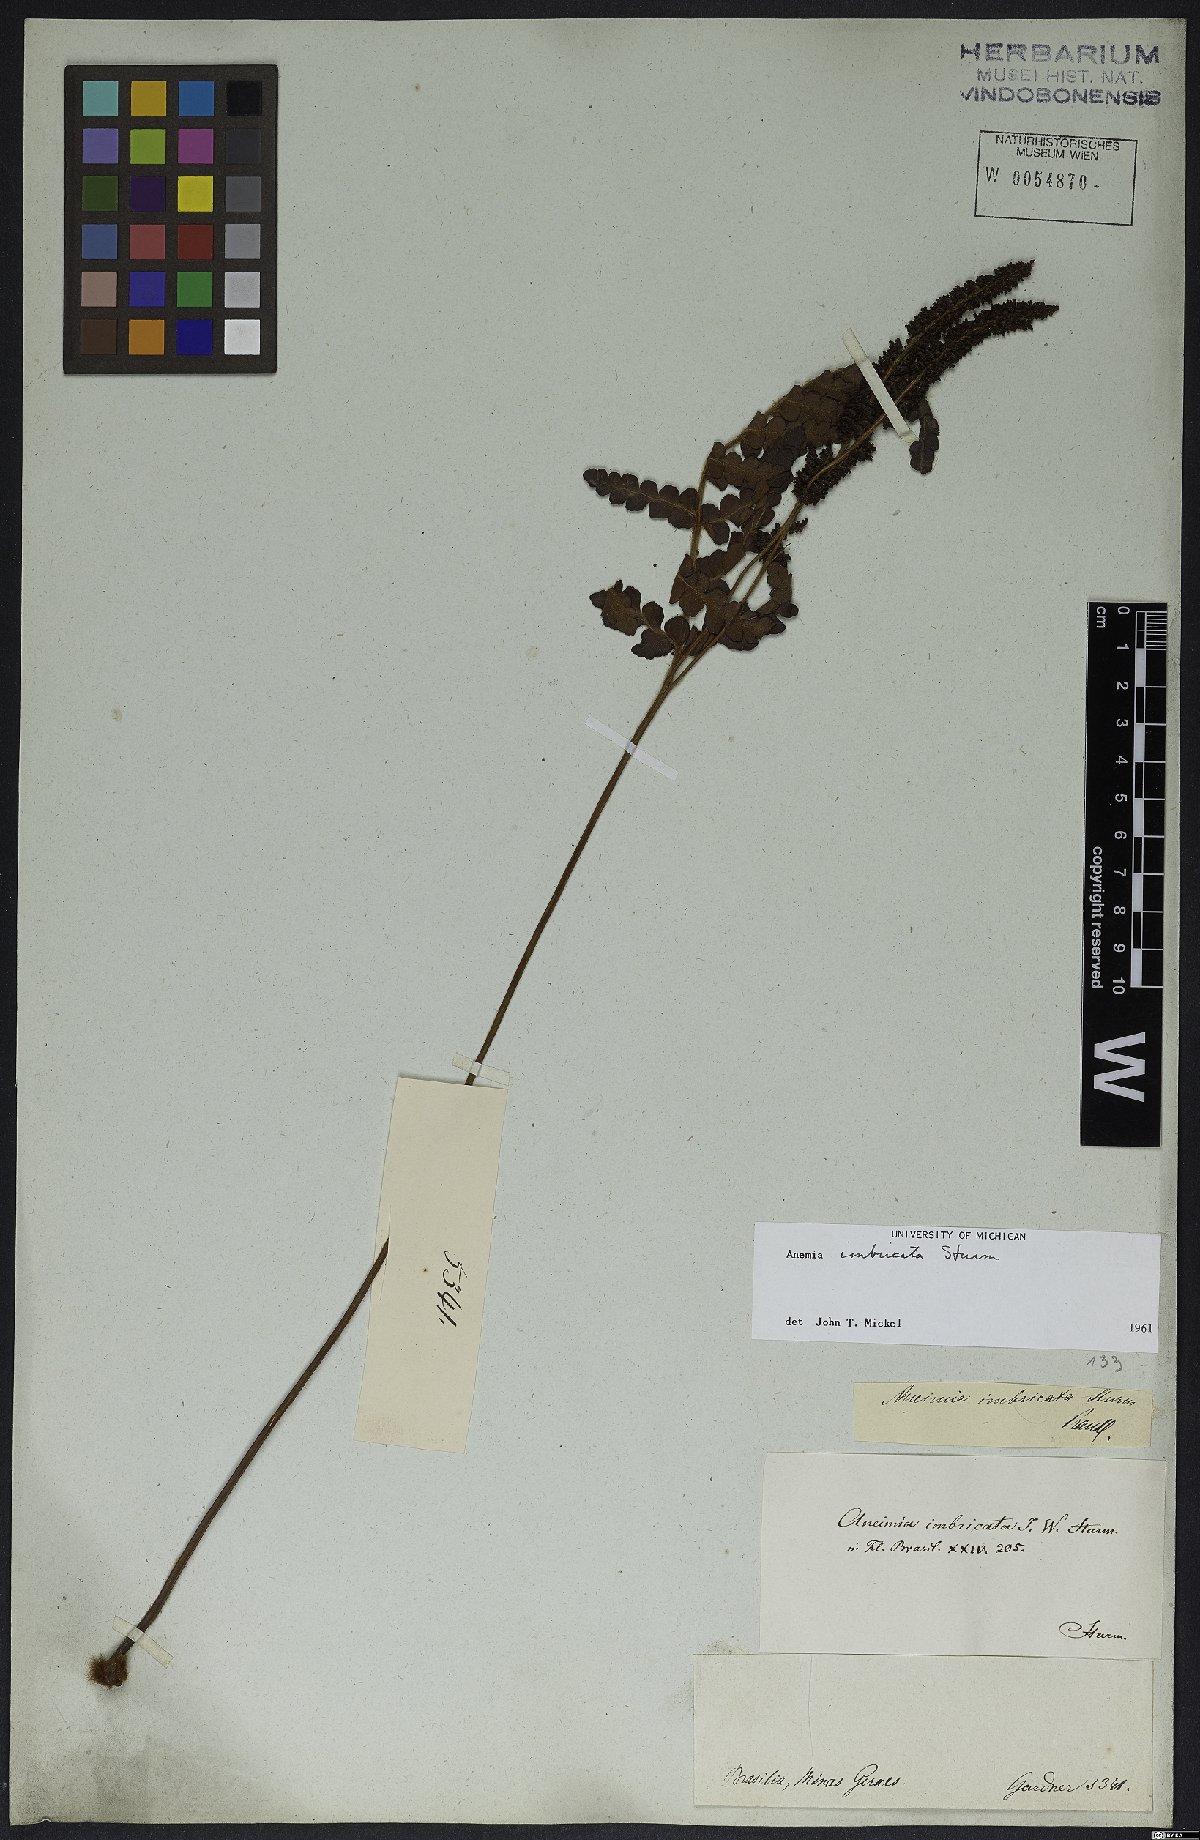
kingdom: Plantae
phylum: Tracheophyta
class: Polypodiopsida
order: Schizaeales
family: Anemiaceae
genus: Anemia
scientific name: Anemia imbricata
